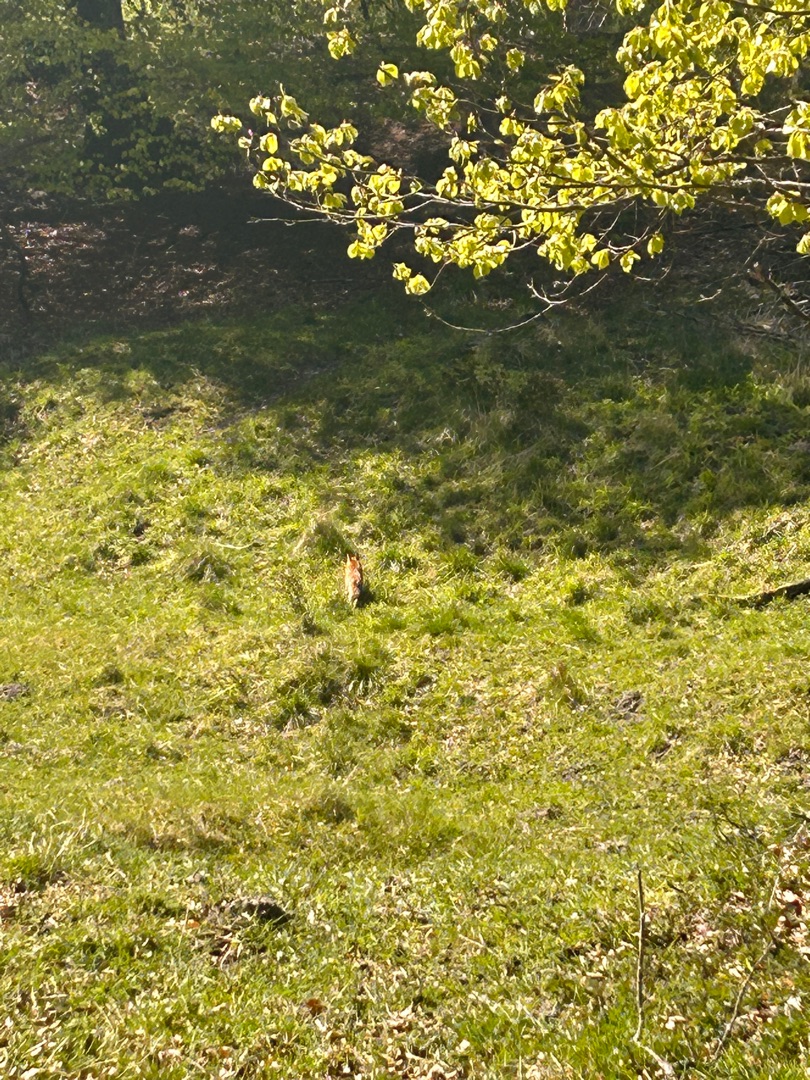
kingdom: Animalia
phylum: Chordata
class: Mammalia
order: Carnivora
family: Canidae
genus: Vulpes
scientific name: Vulpes vulpes
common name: Ræv
